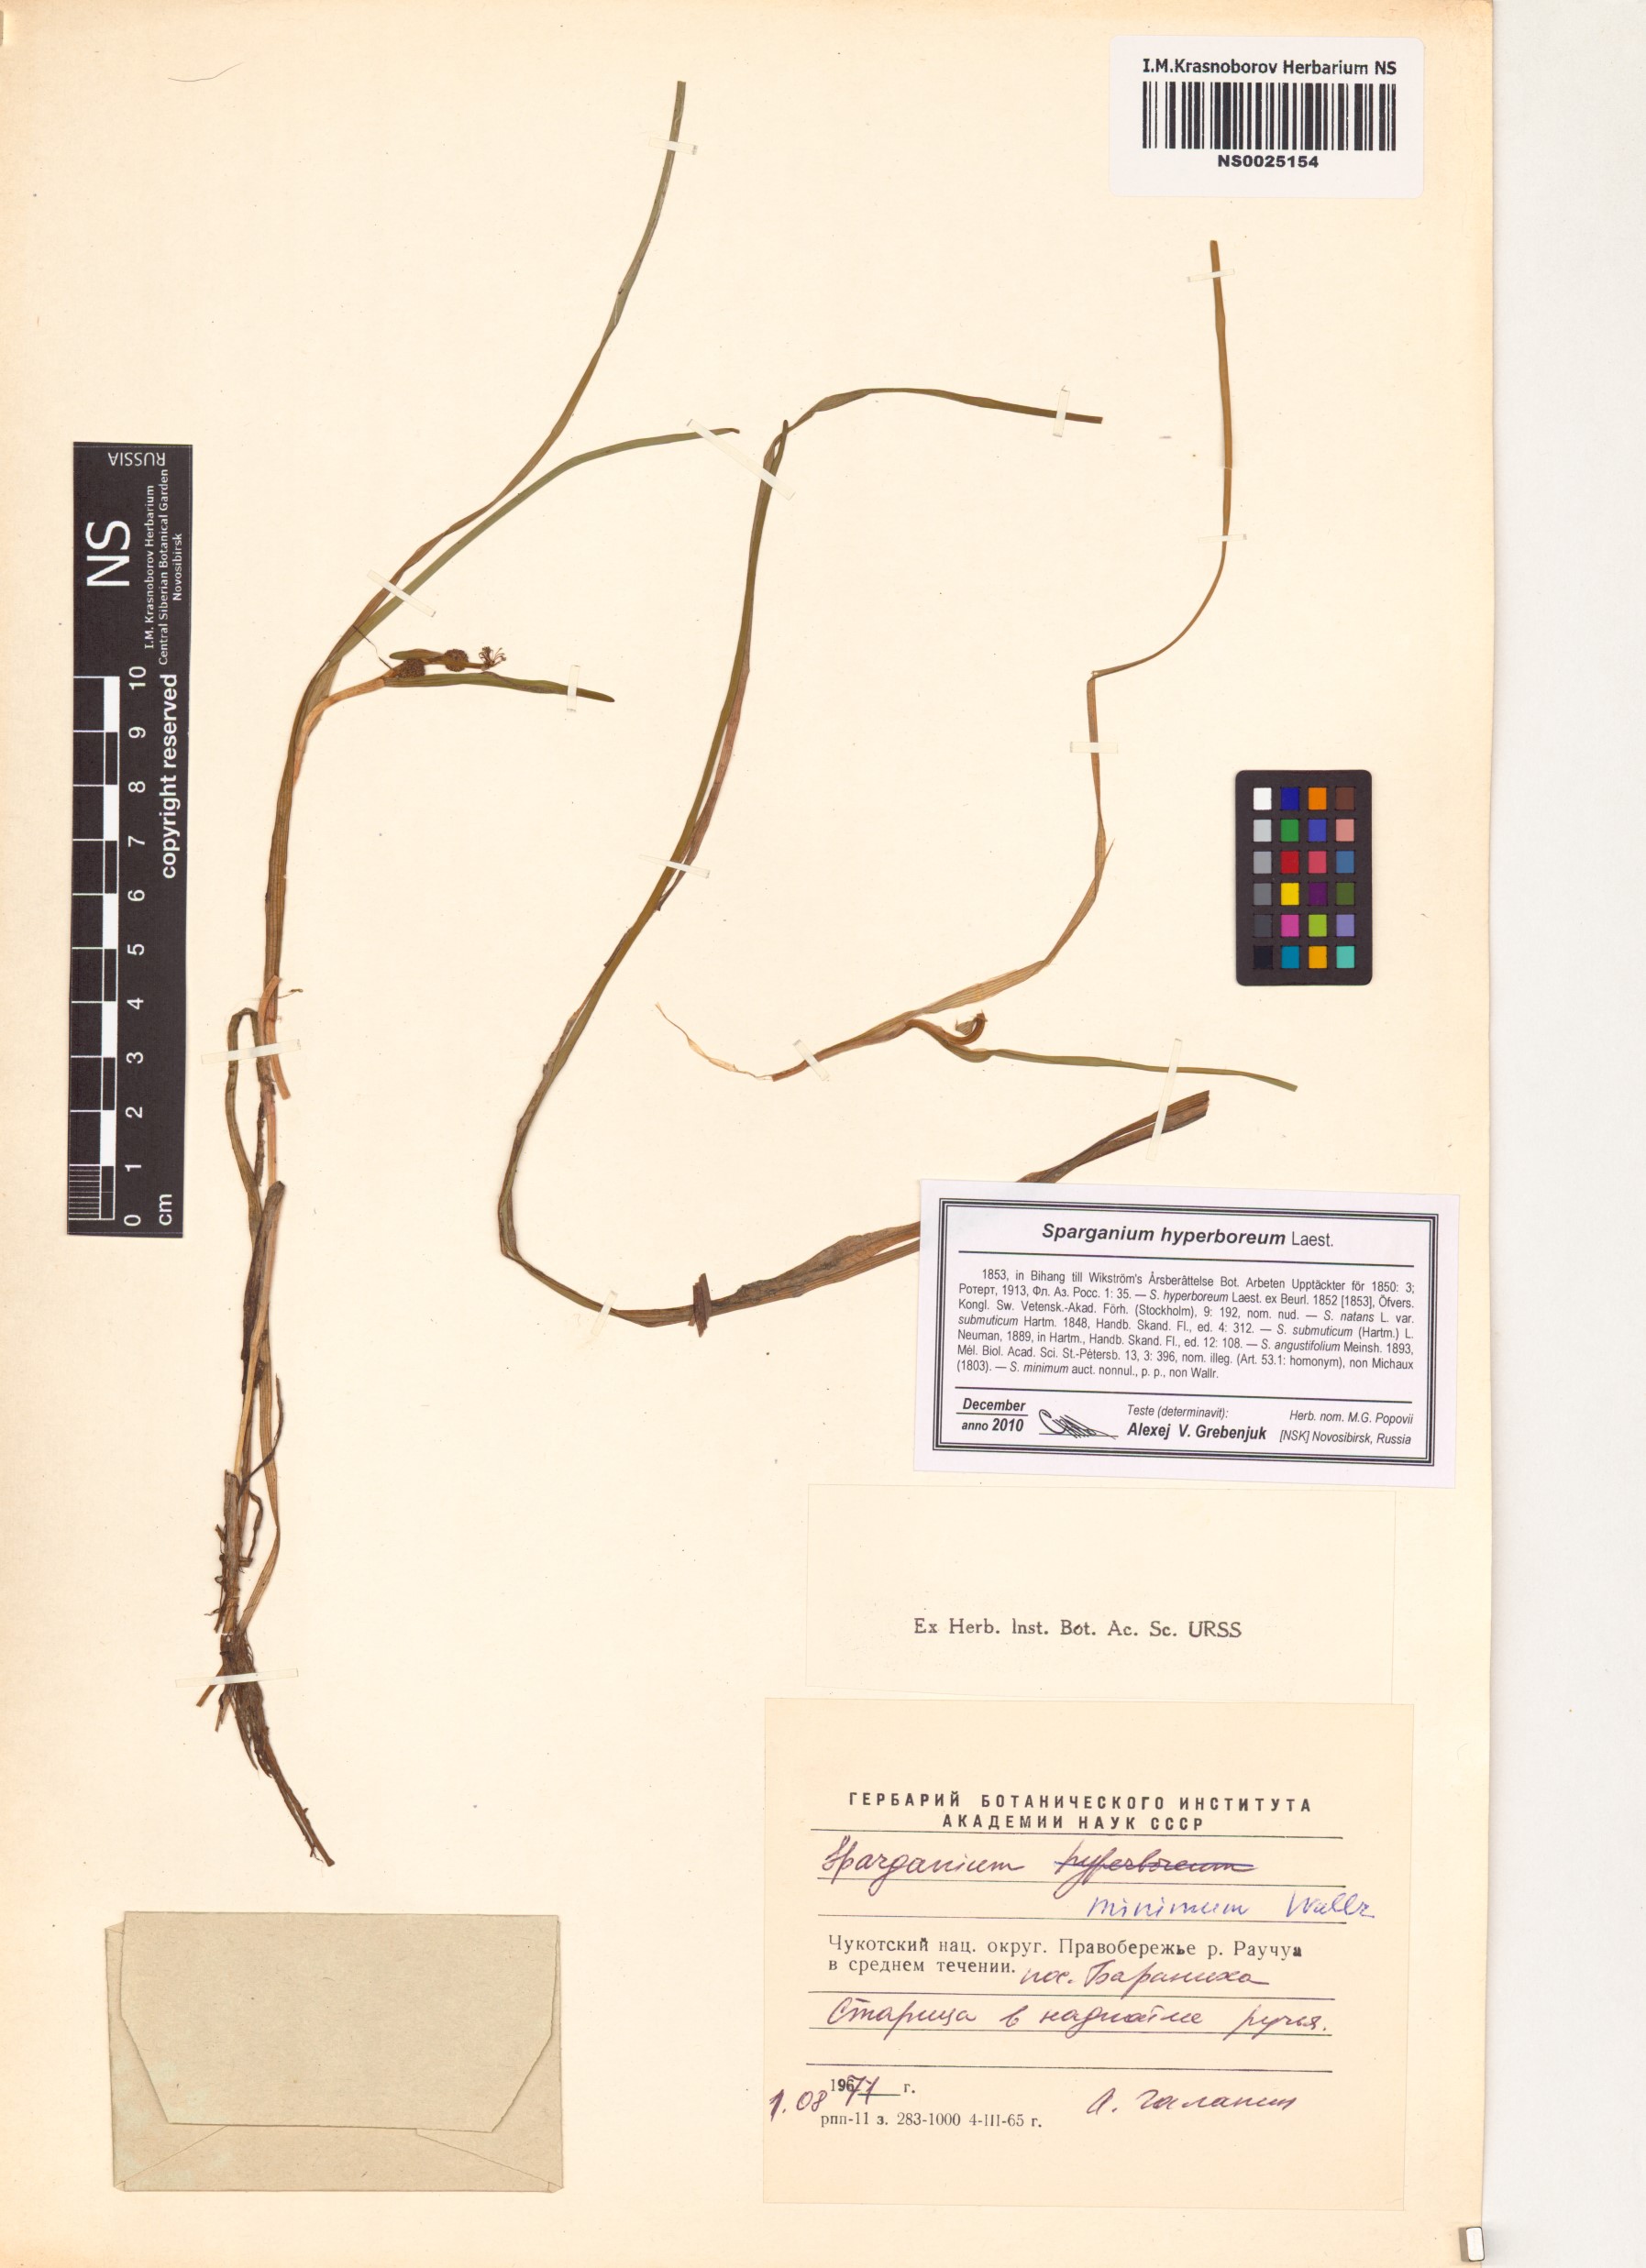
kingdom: Plantae
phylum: Tracheophyta
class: Liliopsida
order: Poales
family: Typhaceae
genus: Sparganium
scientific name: Sparganium hyperboreum
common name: Arctic burreed
